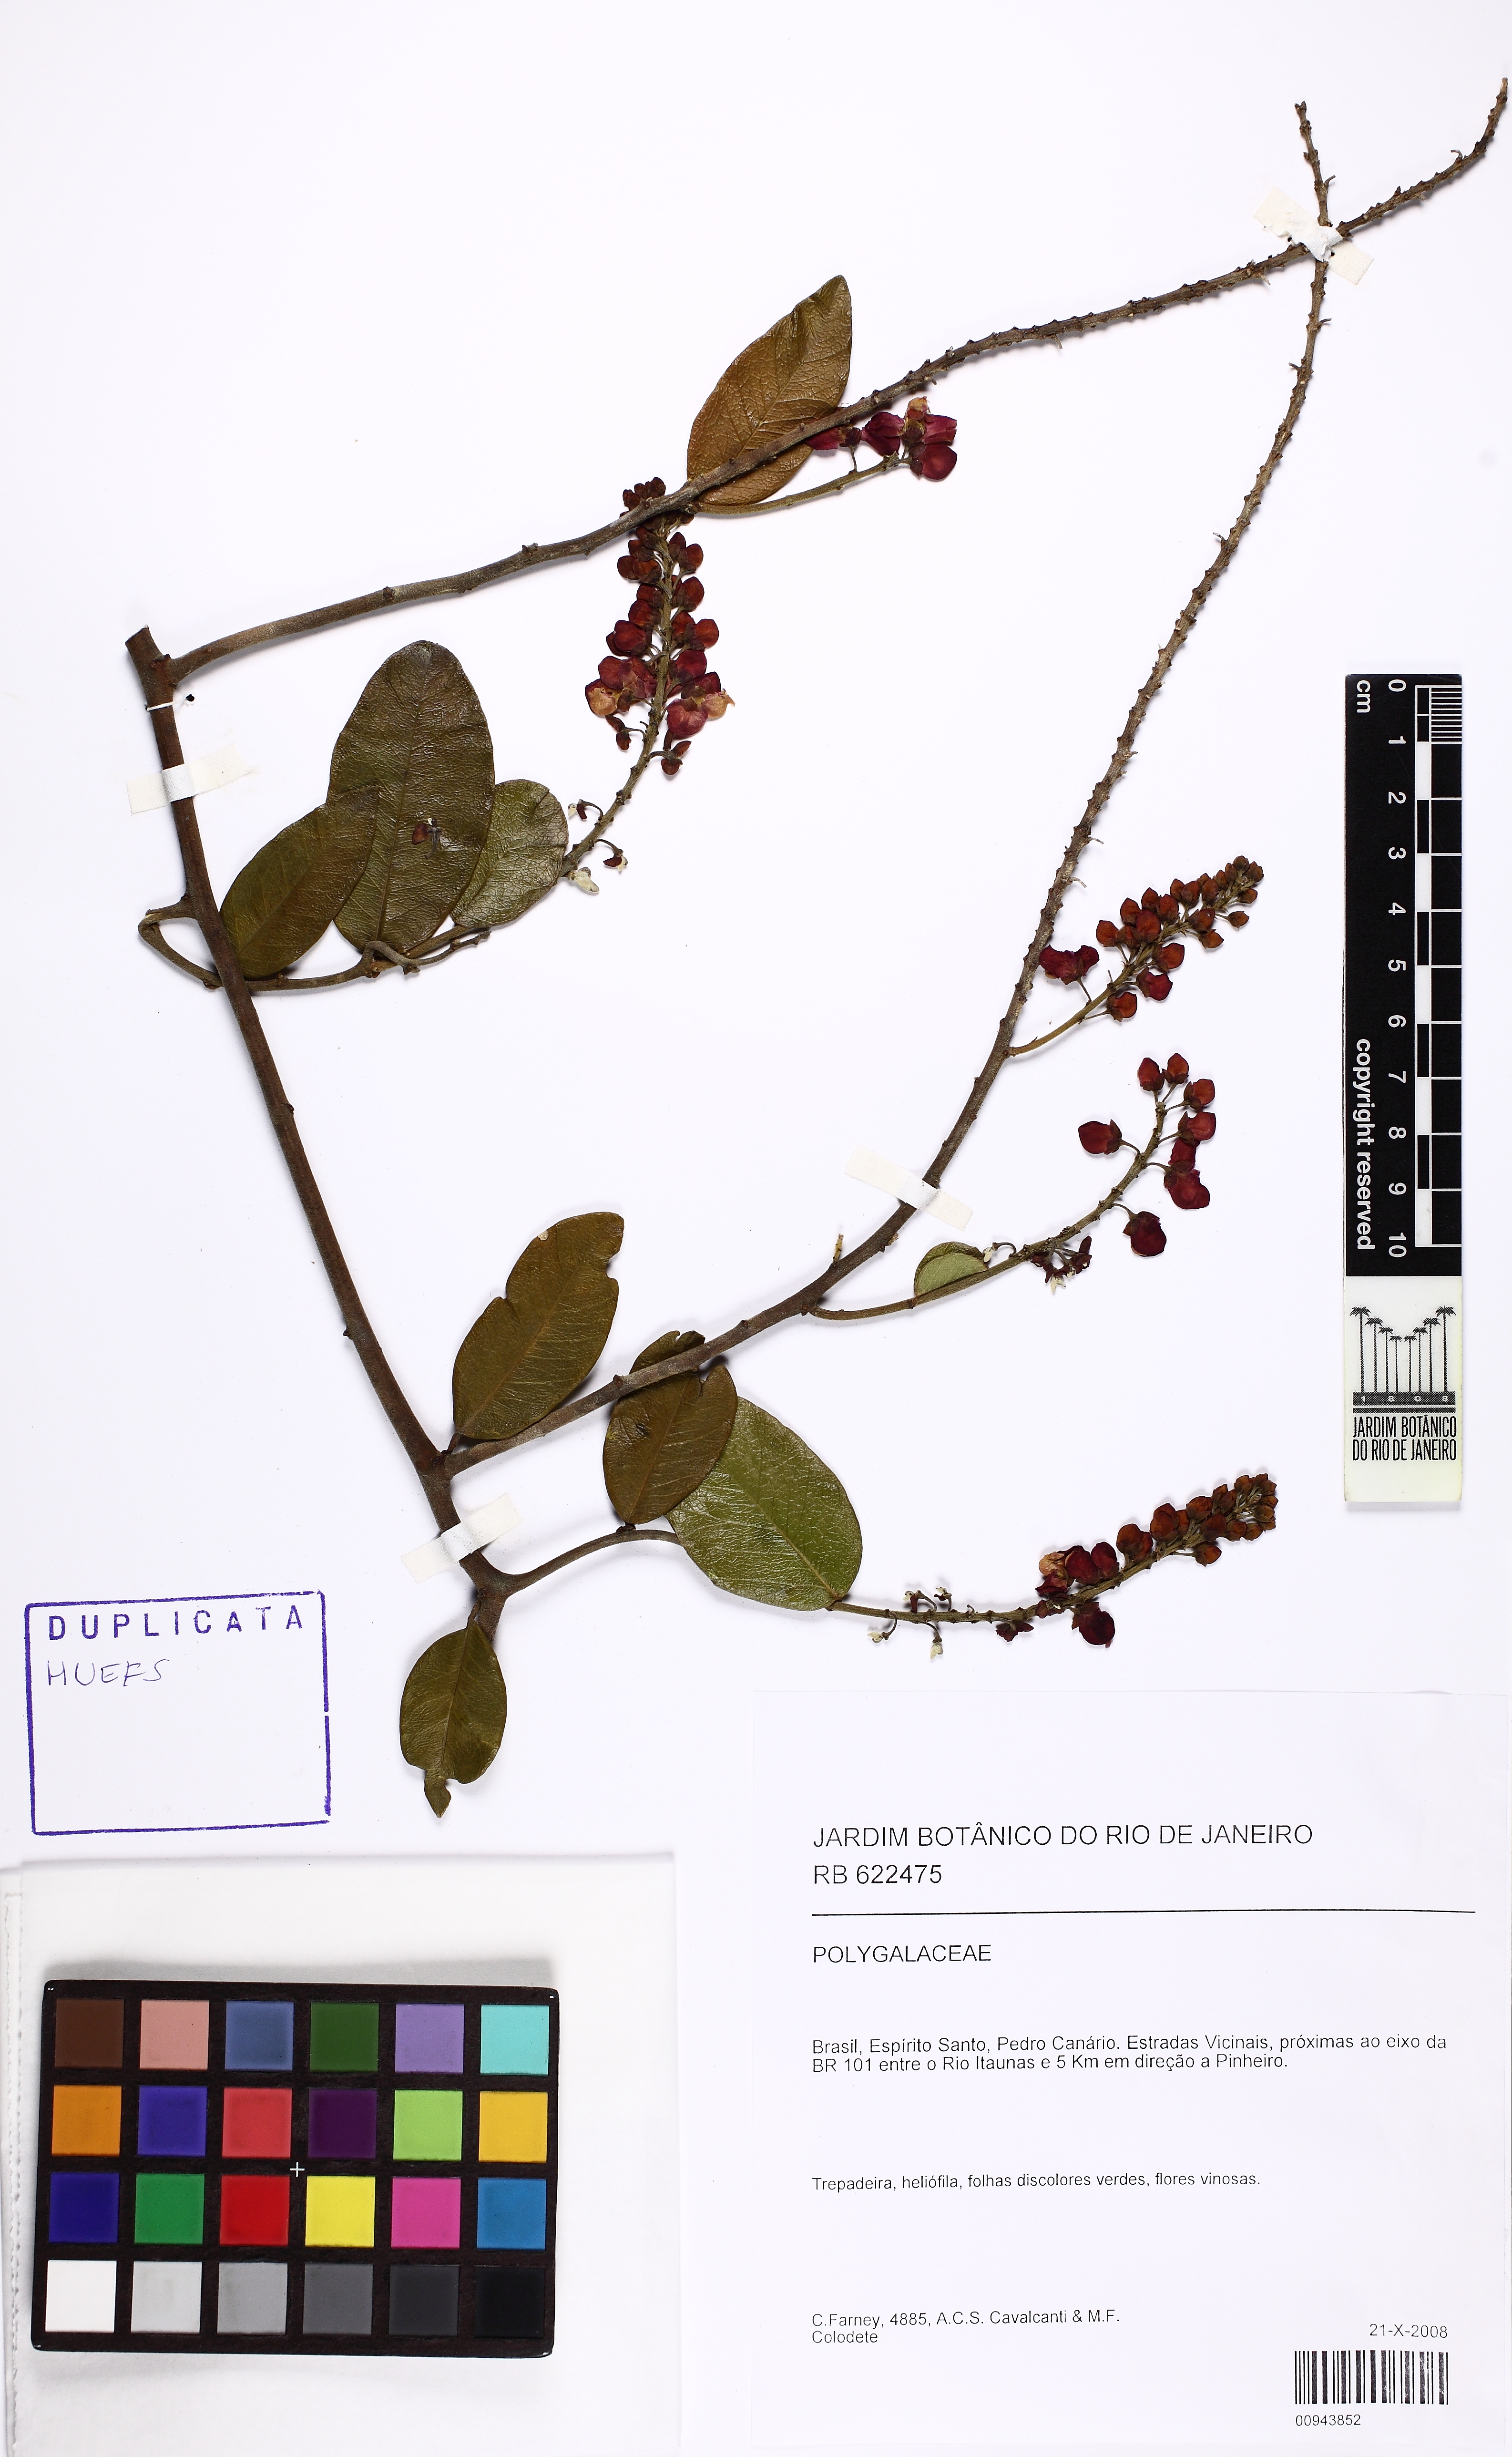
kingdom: Plantae
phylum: Tracheophyta
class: Magnoliopsida
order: Fabales
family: Polygalaceae
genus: Securidaca
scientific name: Securidaca
